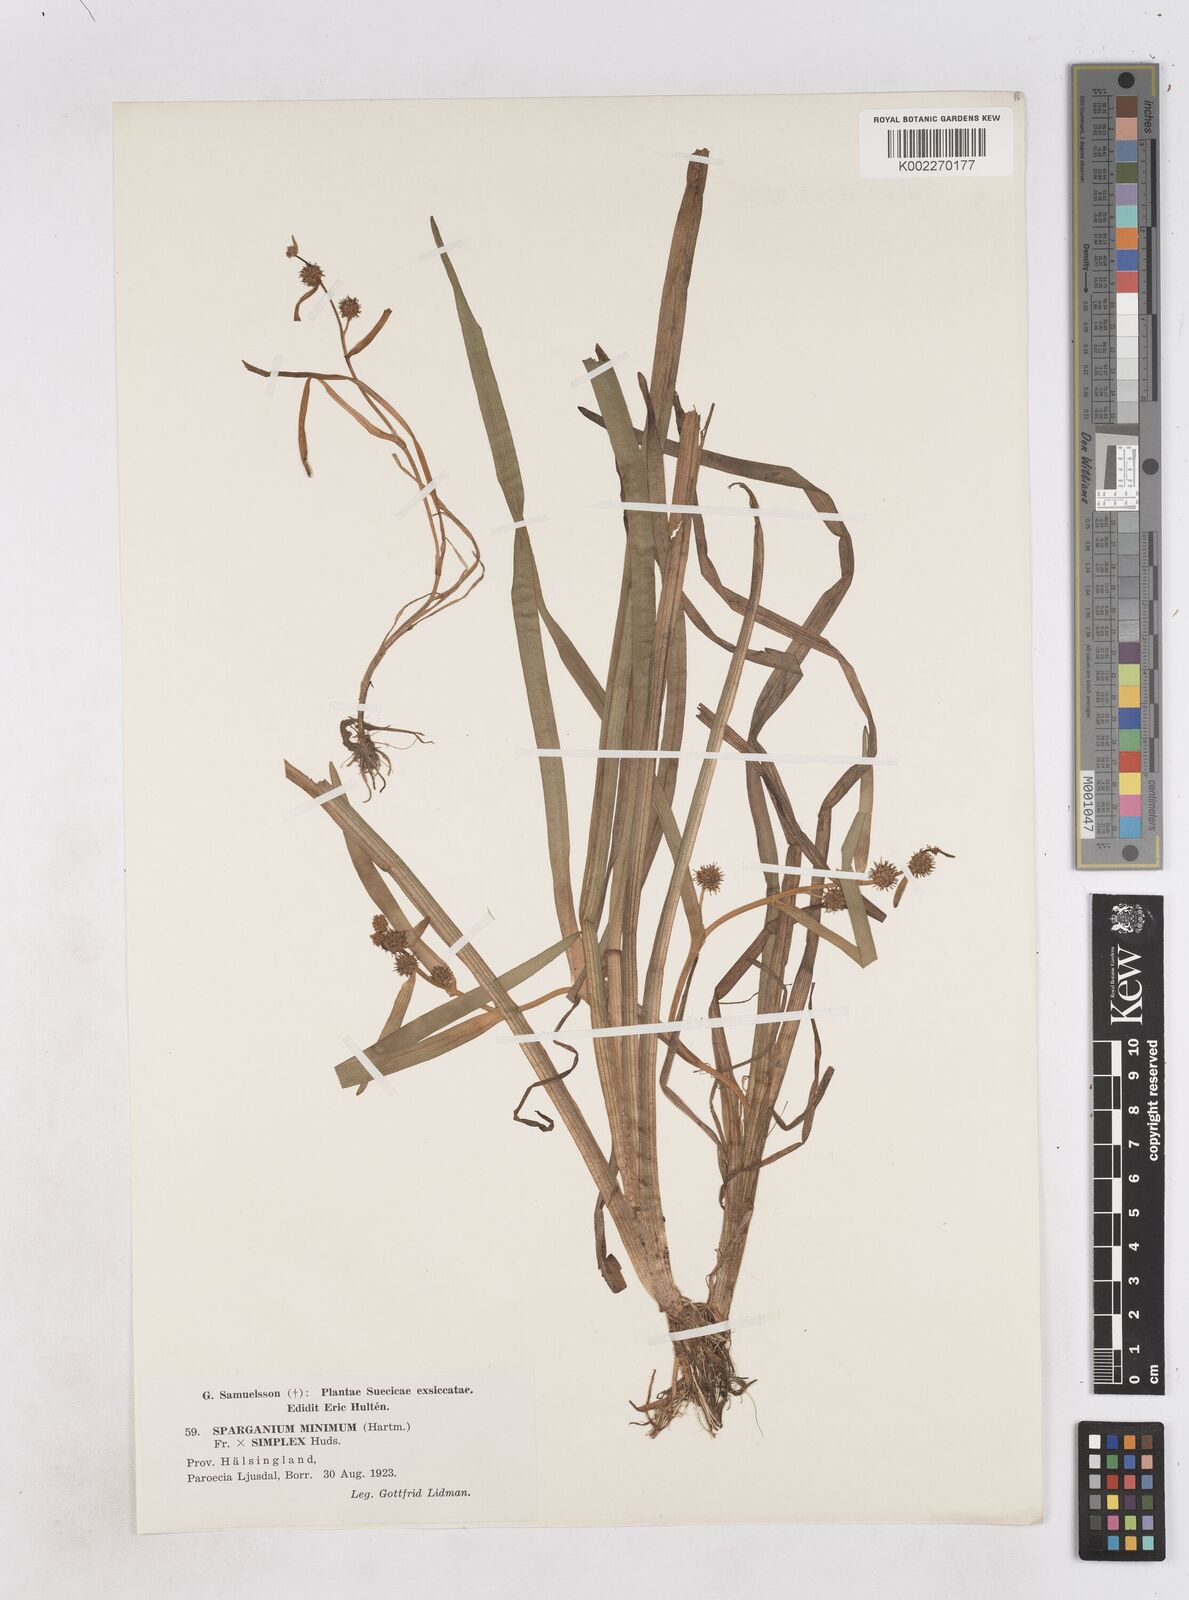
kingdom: Plantae
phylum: Tracheophyta
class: Liliopsida
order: Poales
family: Typhaceae
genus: Sparganium
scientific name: Sparganium
